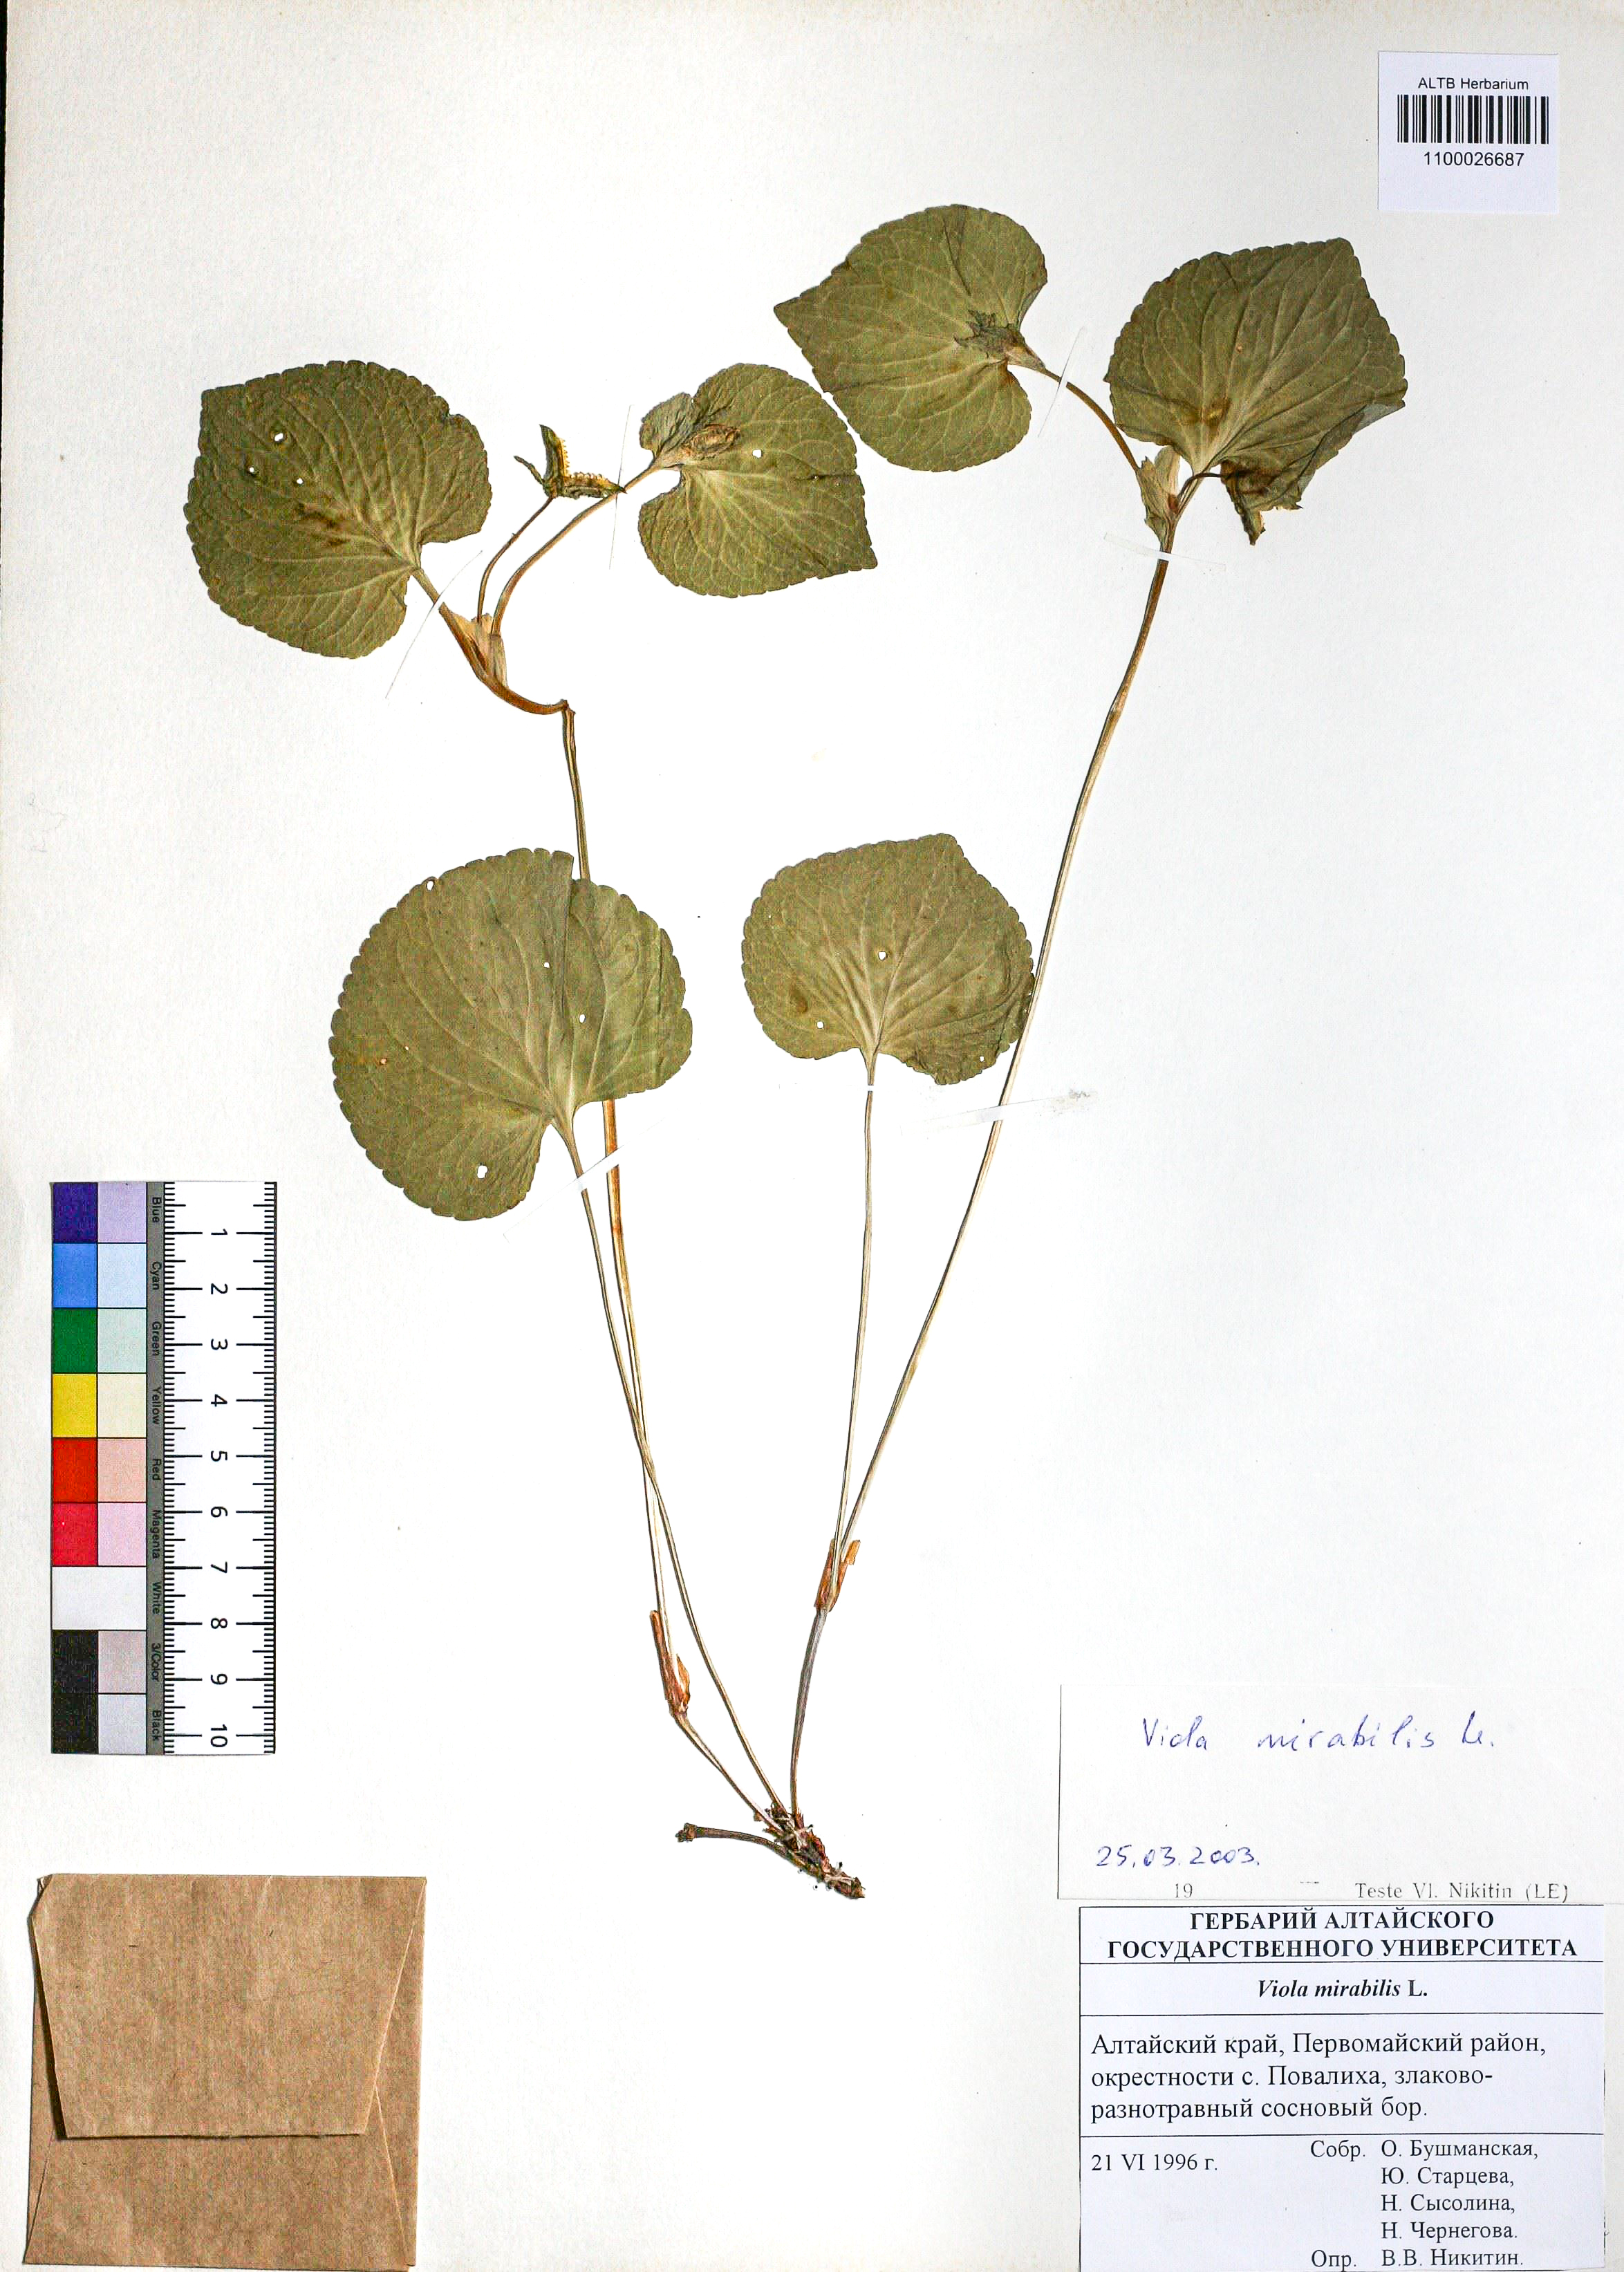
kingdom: Plantae
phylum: Tracheophyta
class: Magnoliopsida
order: Malpighiales
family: Violaceae
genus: Viola
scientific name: Viola mirabilis
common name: Wonder violet
